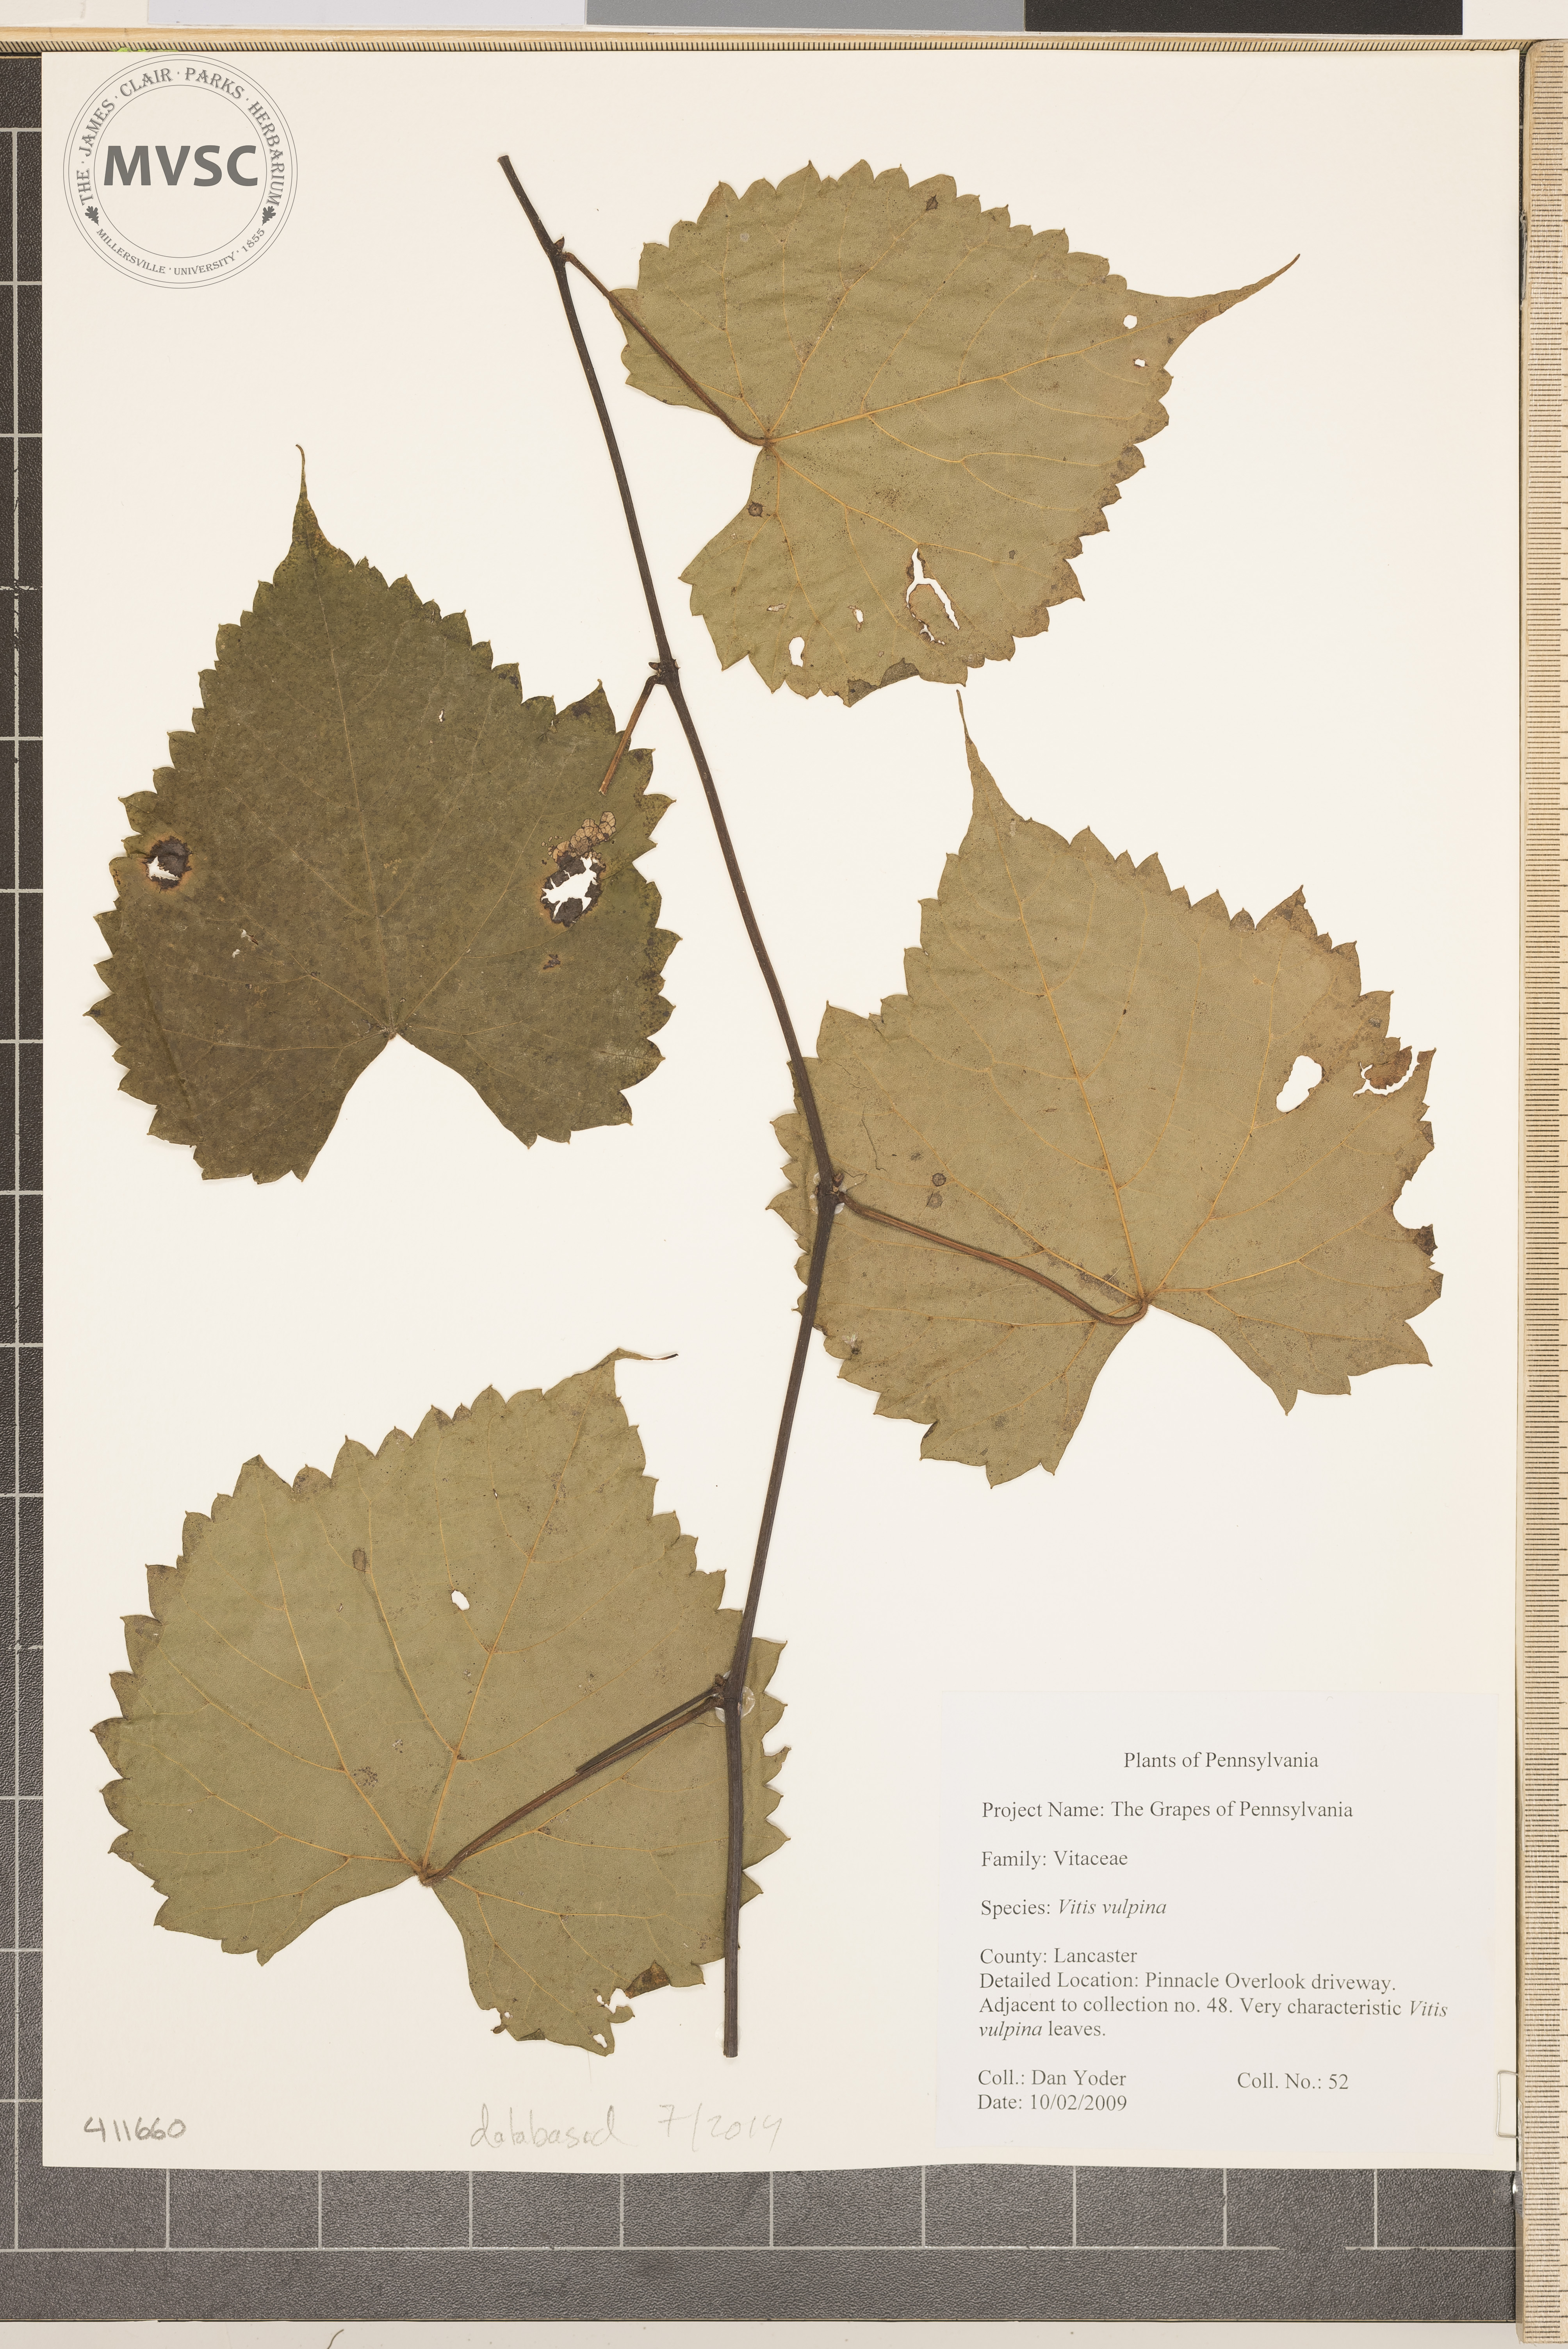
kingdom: Plantae
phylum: Tracheophyta
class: Magnoliopsida
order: Vitales
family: Vitaceae
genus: Vitis
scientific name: Vitis vulpina
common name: Frost Grape
